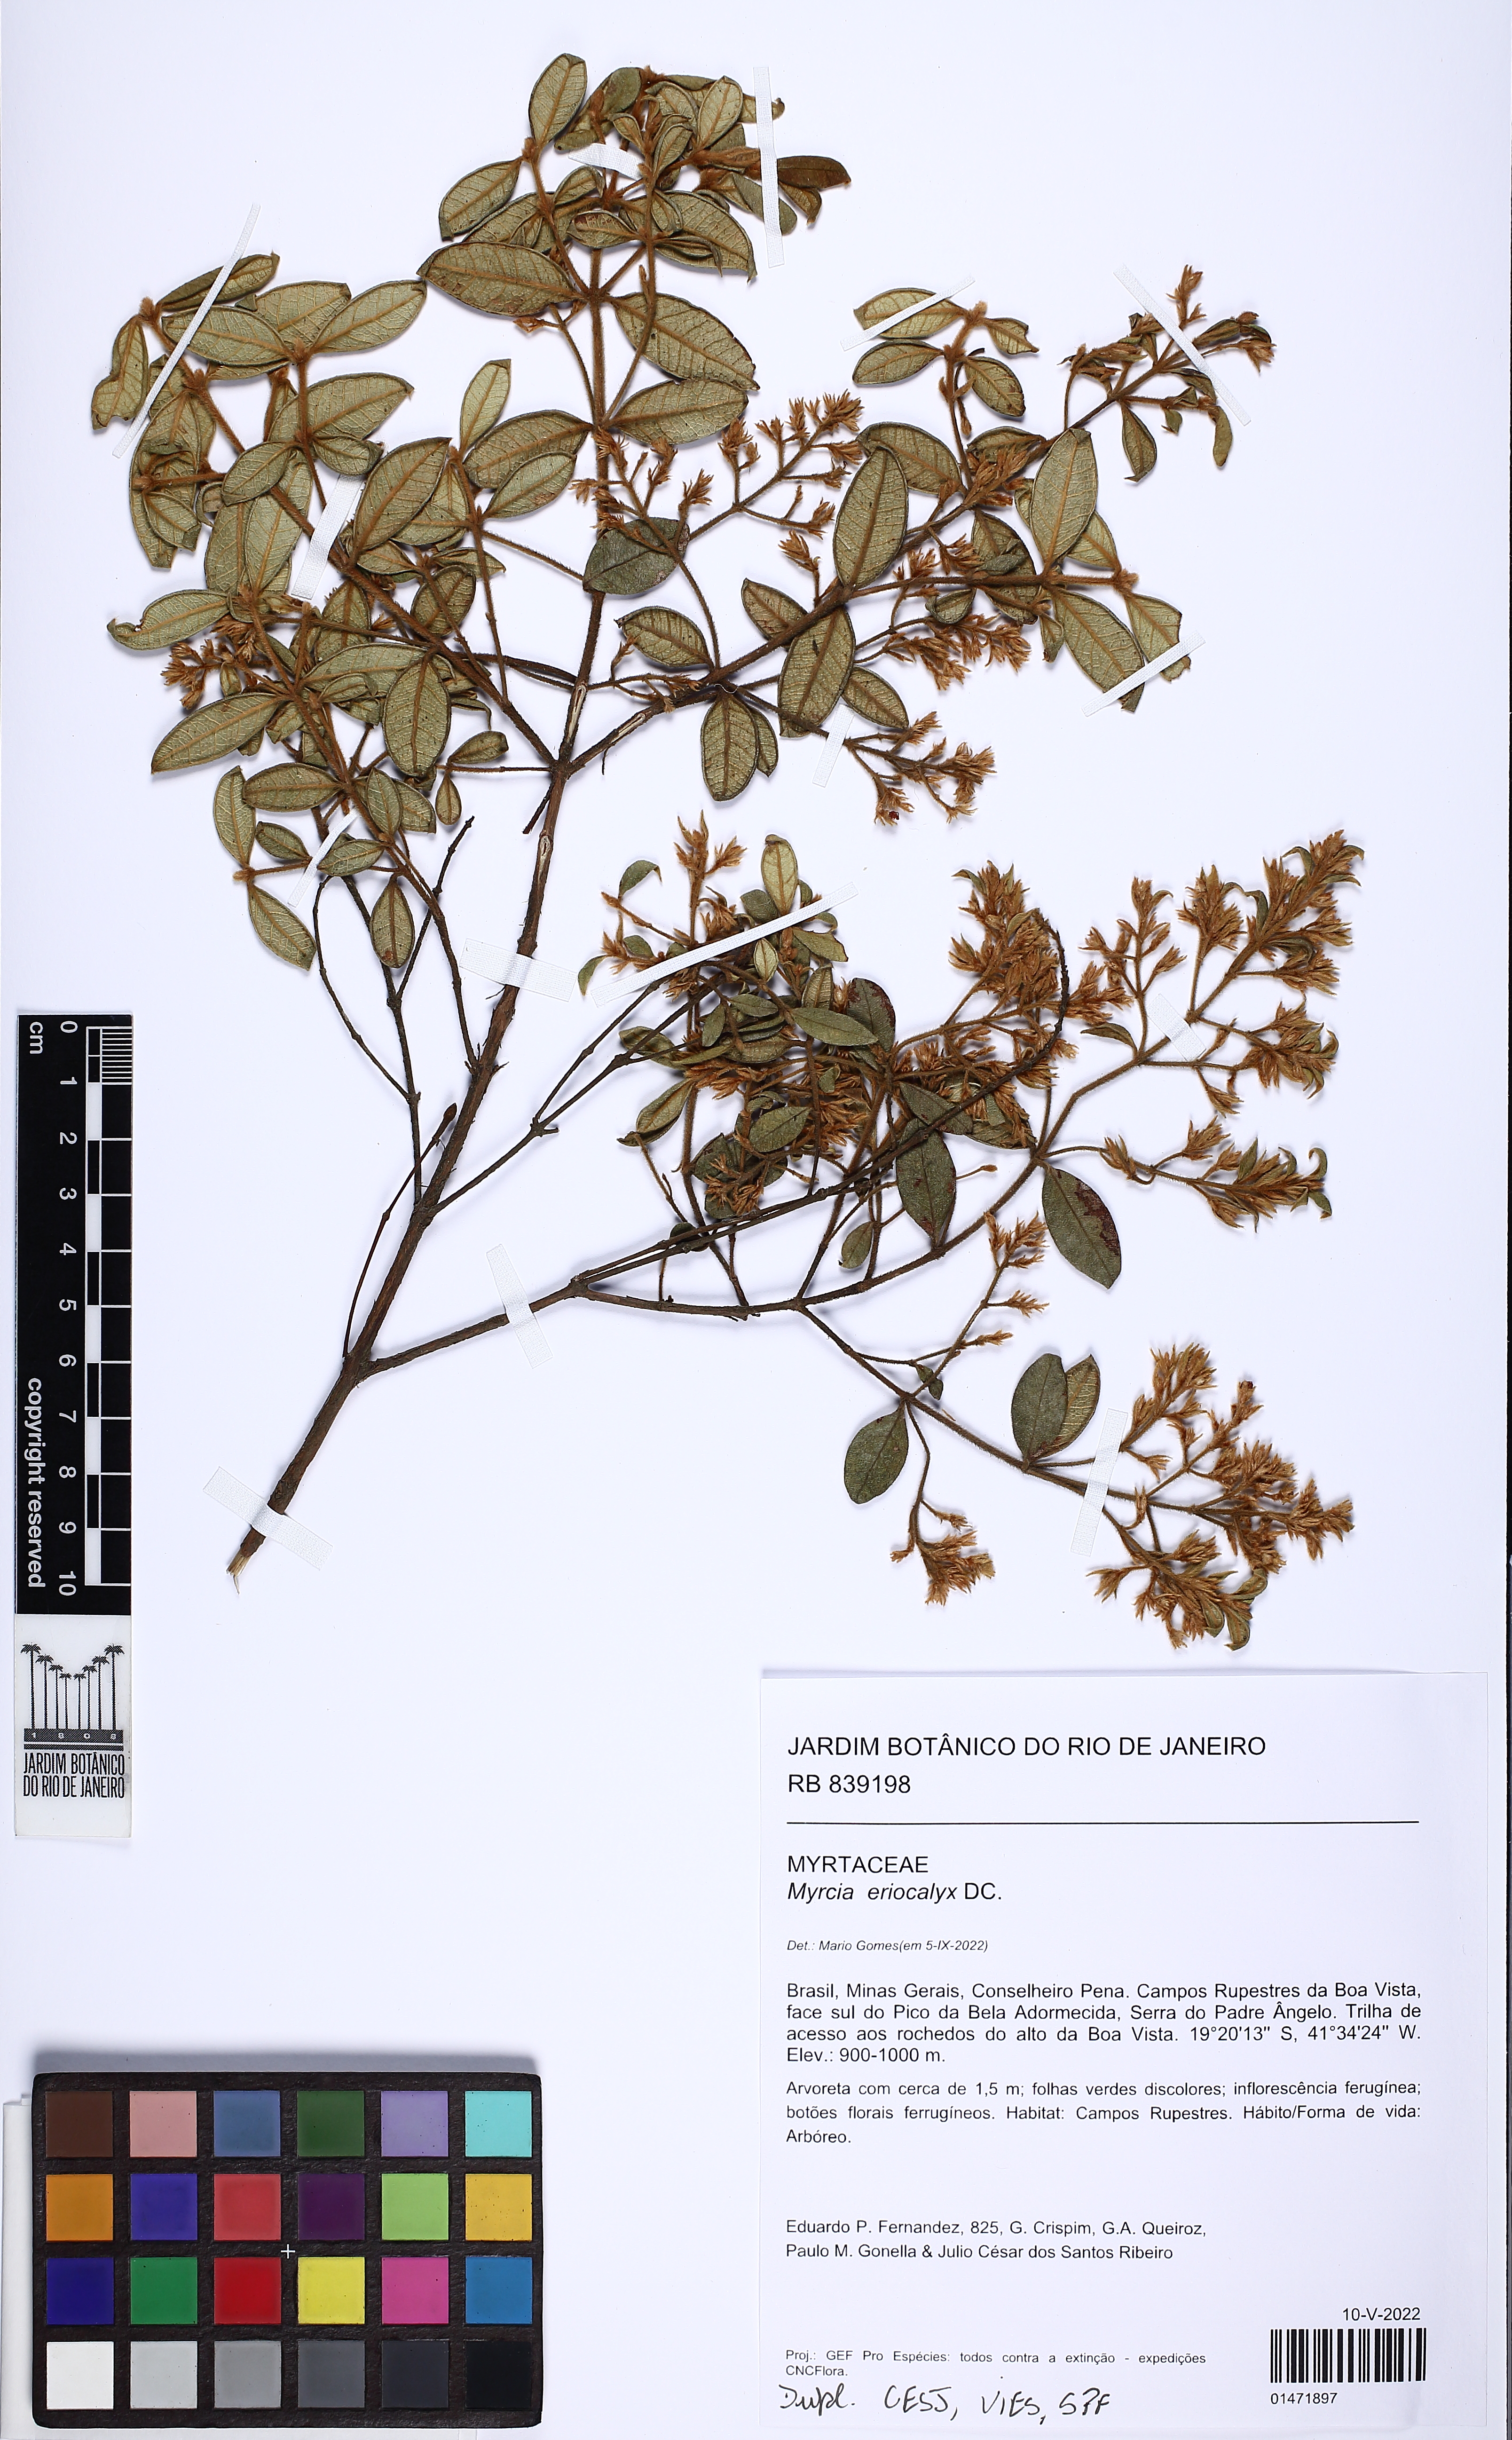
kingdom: Plantae
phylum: Tracheophyta
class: Magnoliopsida
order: Myrtales
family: Myrtaceae
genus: Myrcia
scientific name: Myrcia eriocalyx
